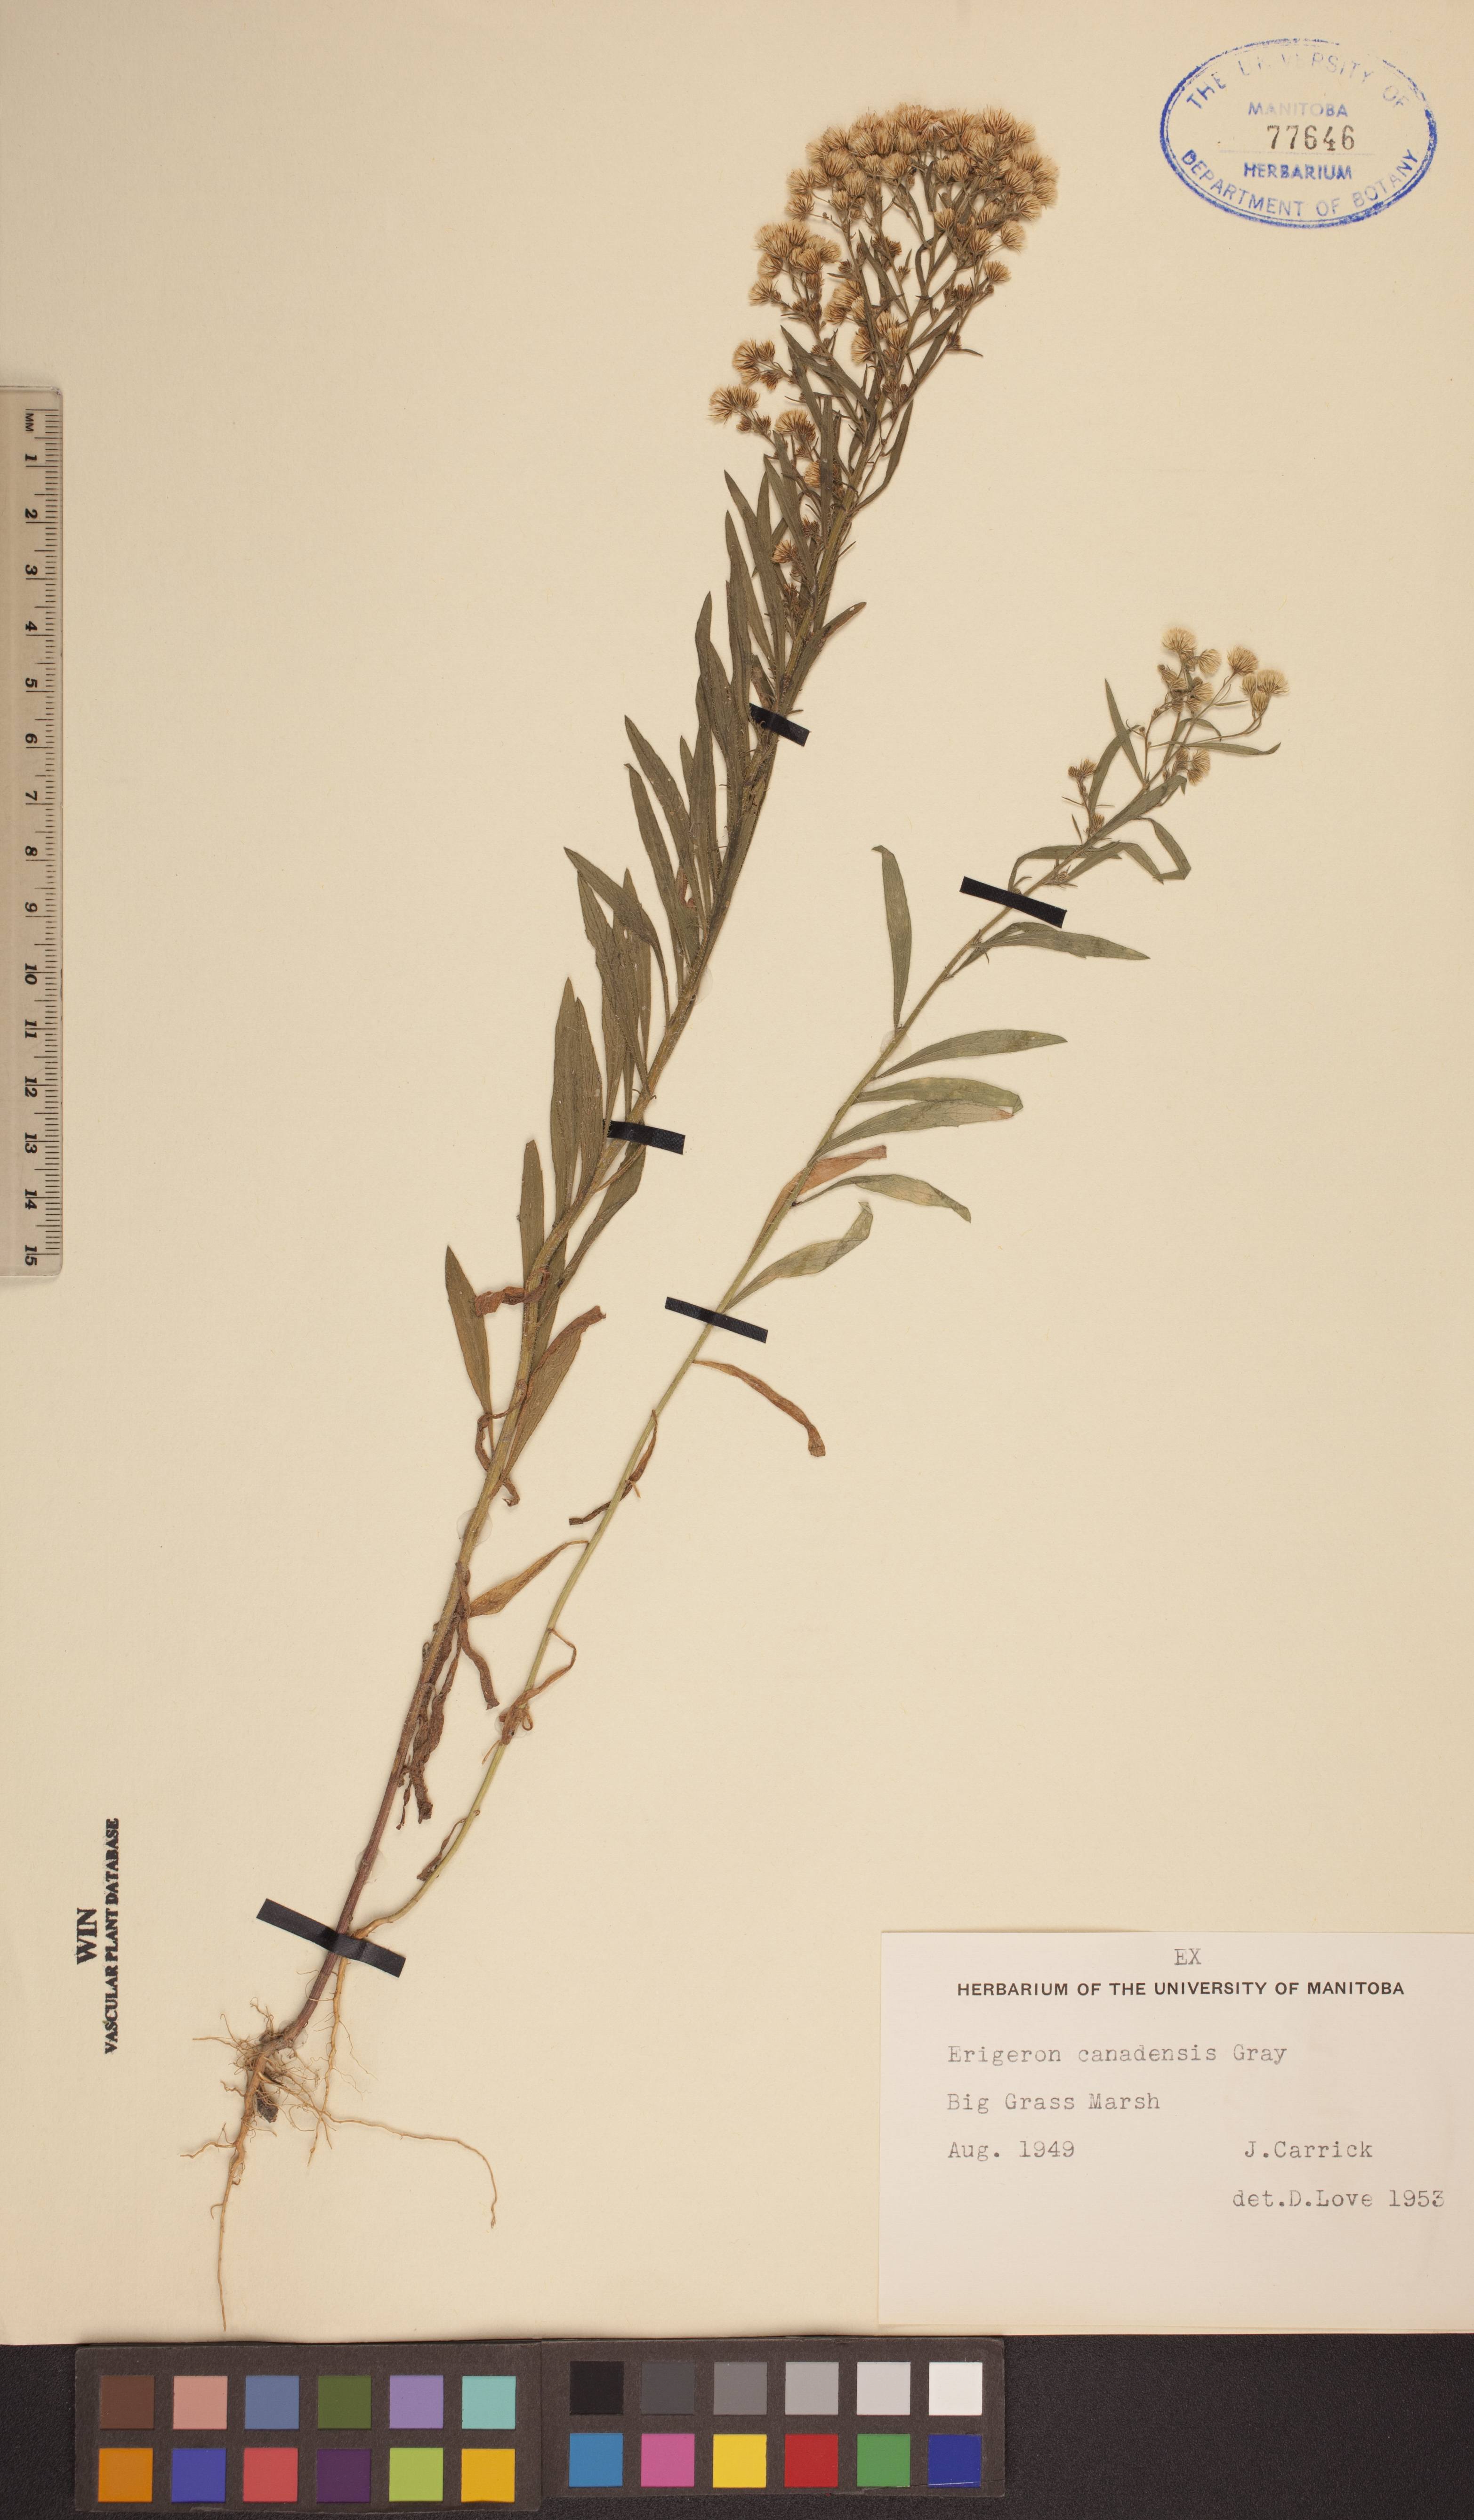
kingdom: Plantae
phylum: Tracheophyta
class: Magnoliopsida
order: Asterales
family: Asteraceae
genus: Erigeron
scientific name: Erigeron canadensis
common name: Canadian fleabane
